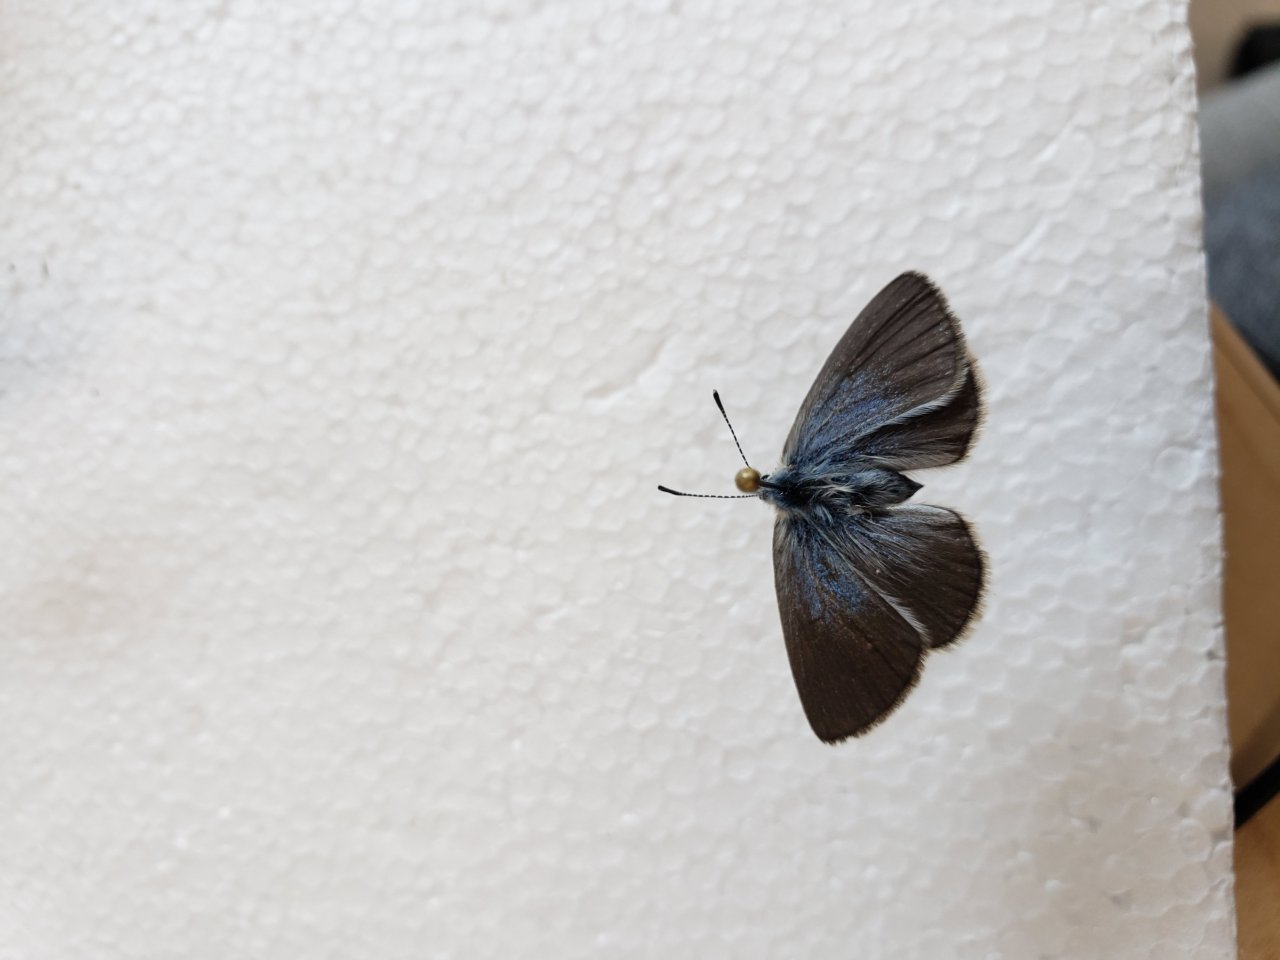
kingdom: Animalia
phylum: Arthropoda
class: Insecta
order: Lepidoptera
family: Lycaenidae
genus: Glaucopsyche
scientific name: Glaucopsyche lygdamus
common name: Silvery Blue
